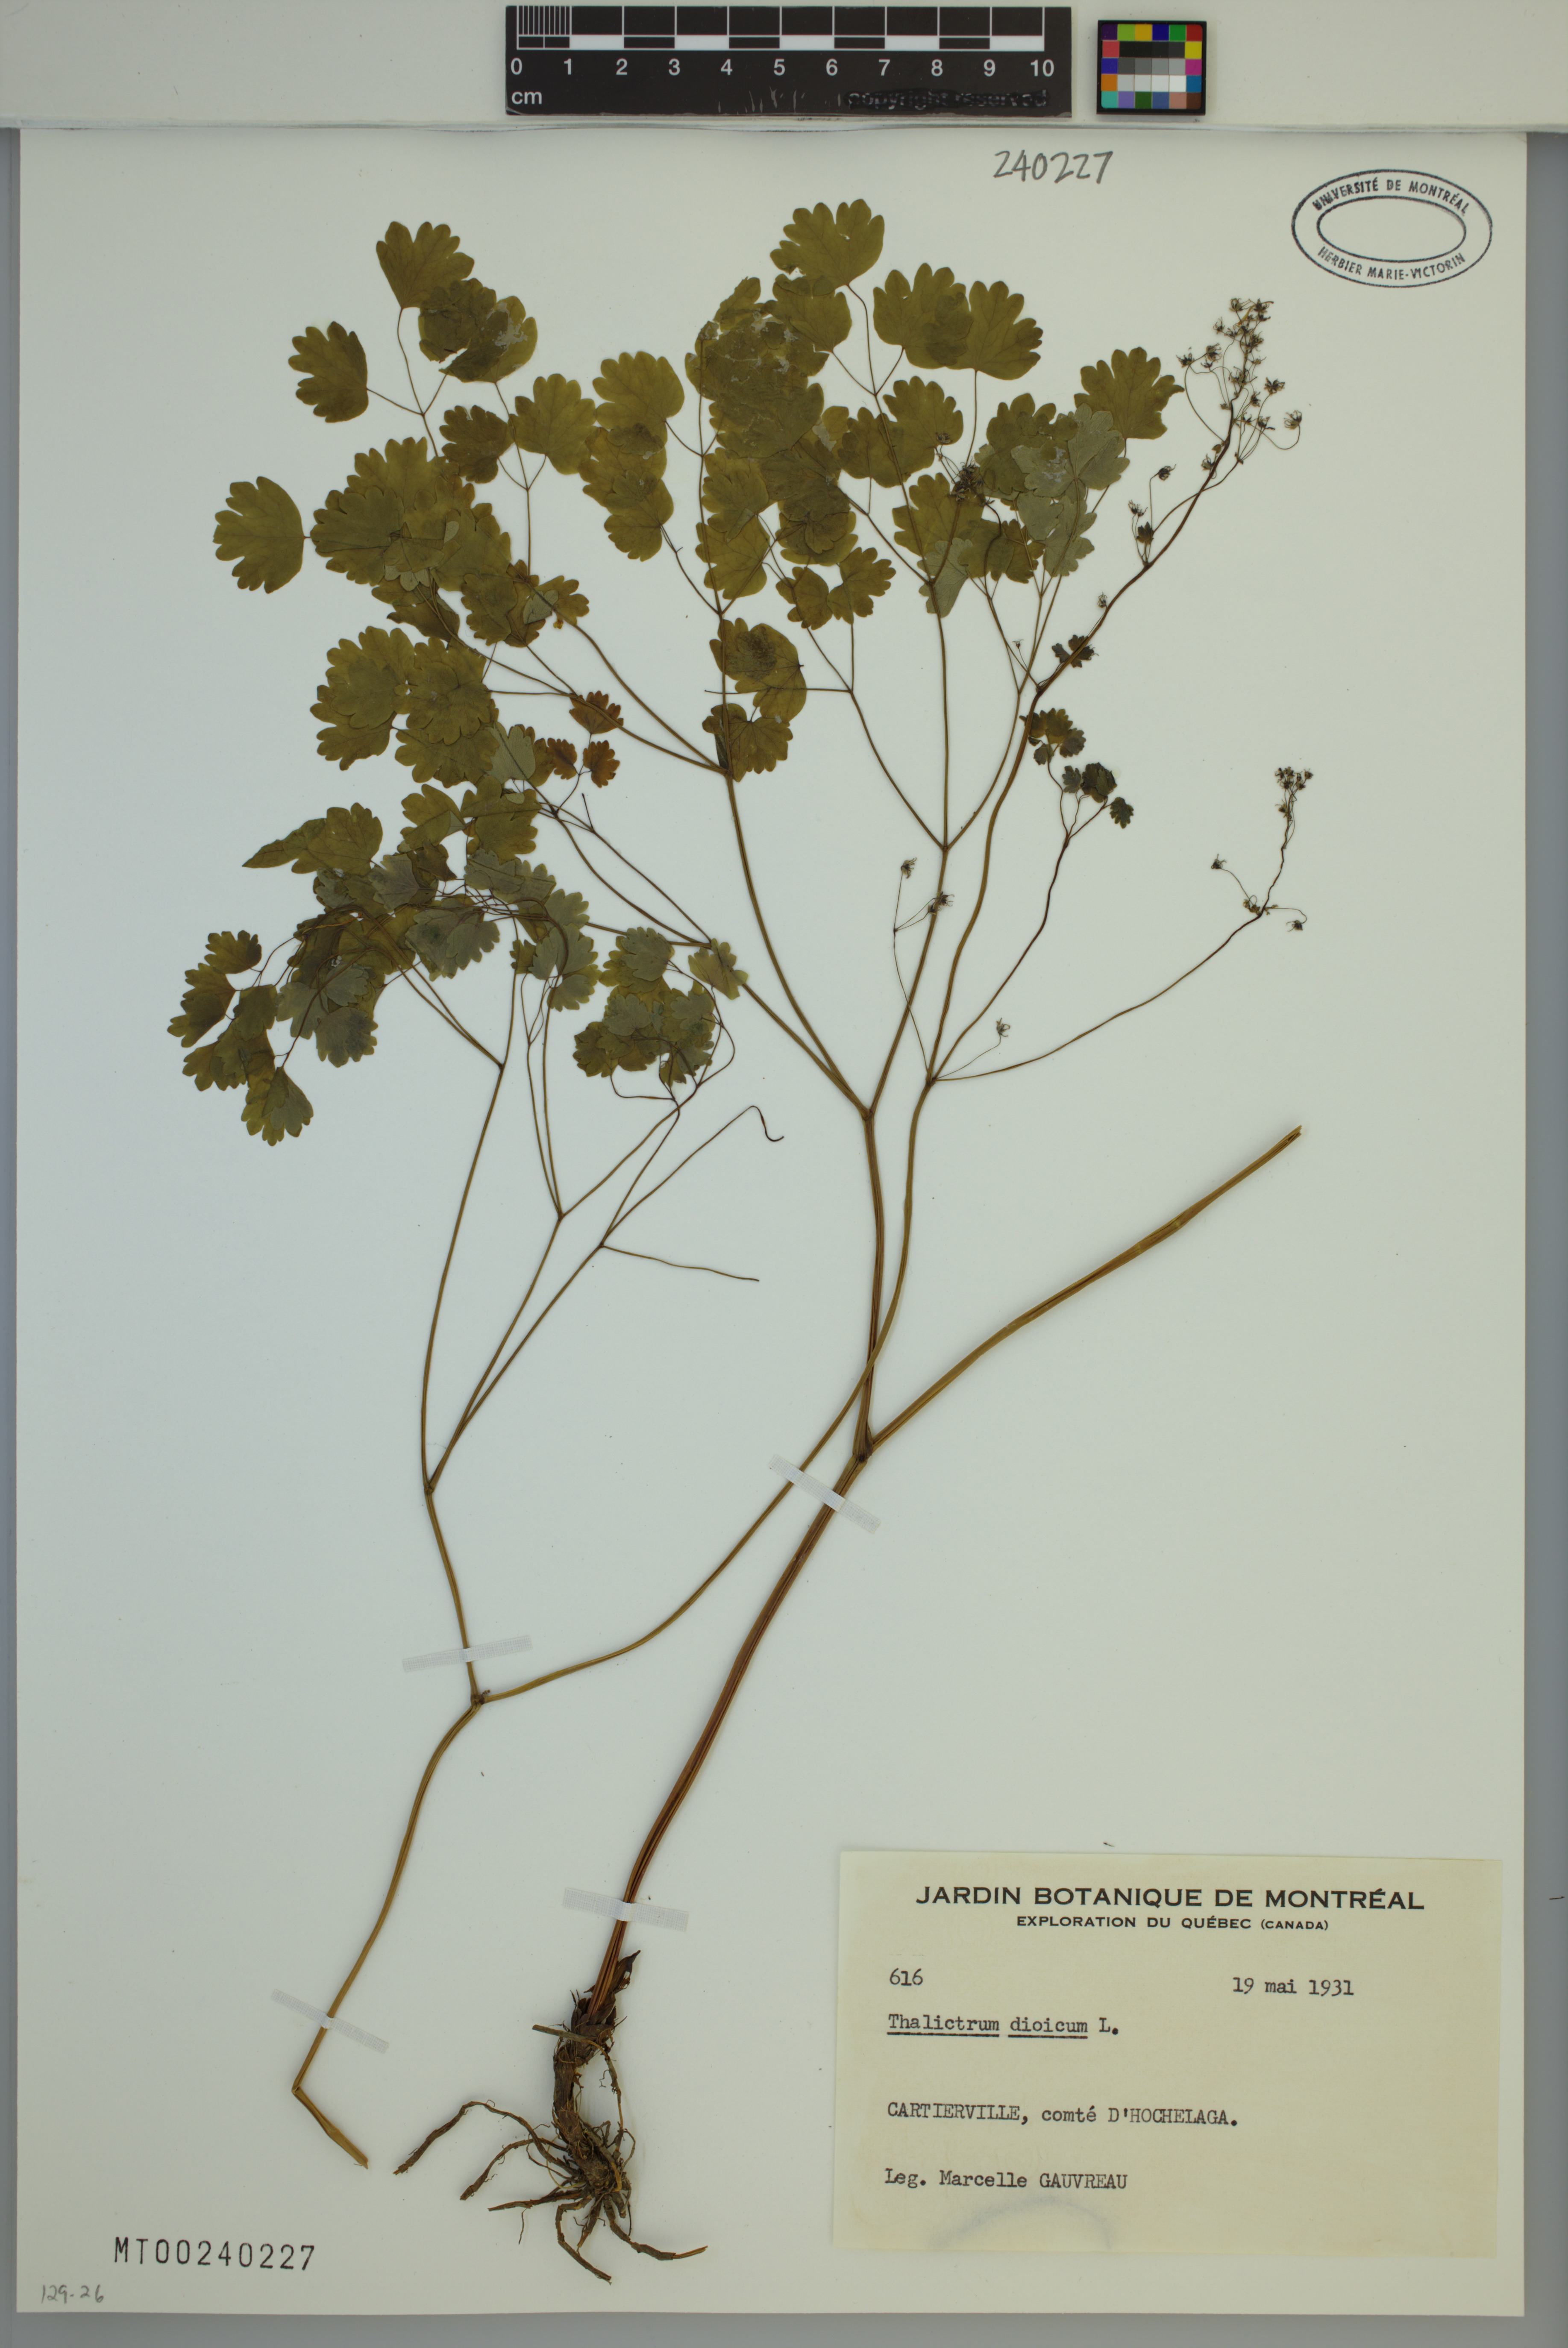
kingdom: Plantae
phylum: Tracheophyta
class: Magnoliopsida
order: Ranunculales
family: Ranunculaceae
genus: Thalictrum
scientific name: Thalictrum dioicum
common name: Early meadow-rue
